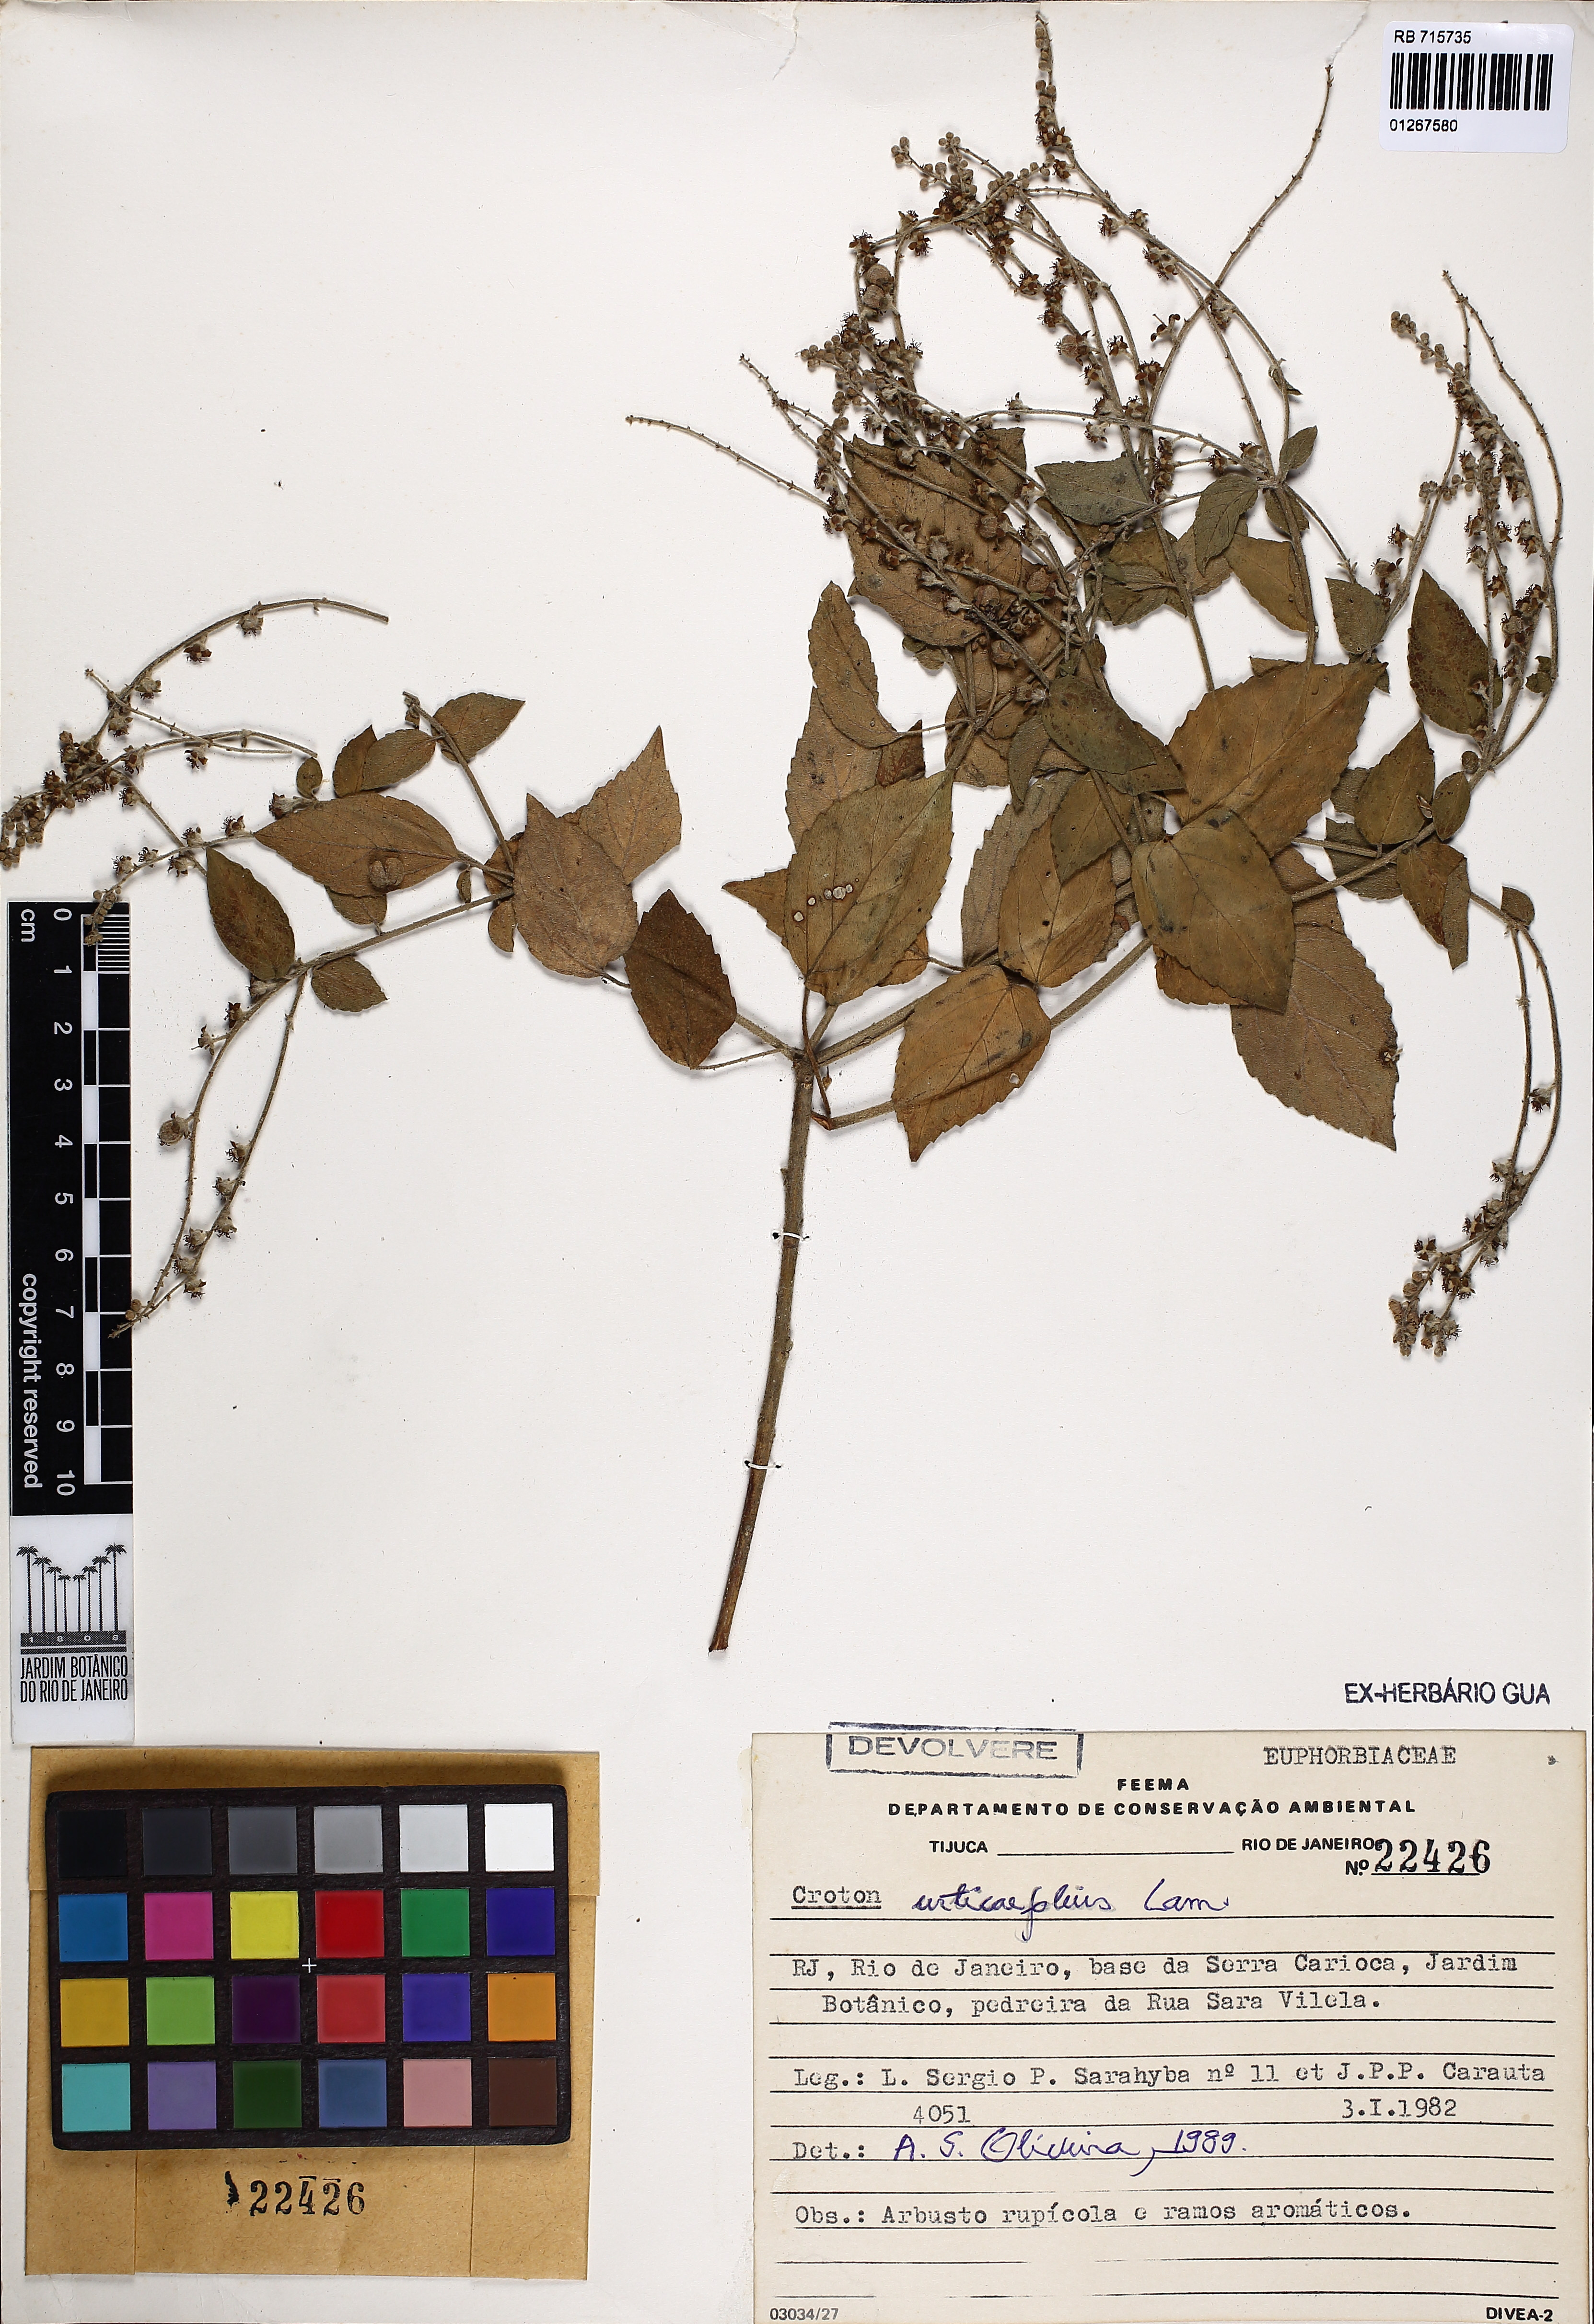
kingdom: Plantae
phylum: Tracheophyta
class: Magnoliopsida
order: Malpighiales
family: Euphorbiaceae
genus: Croton
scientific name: Croton urticifolius
